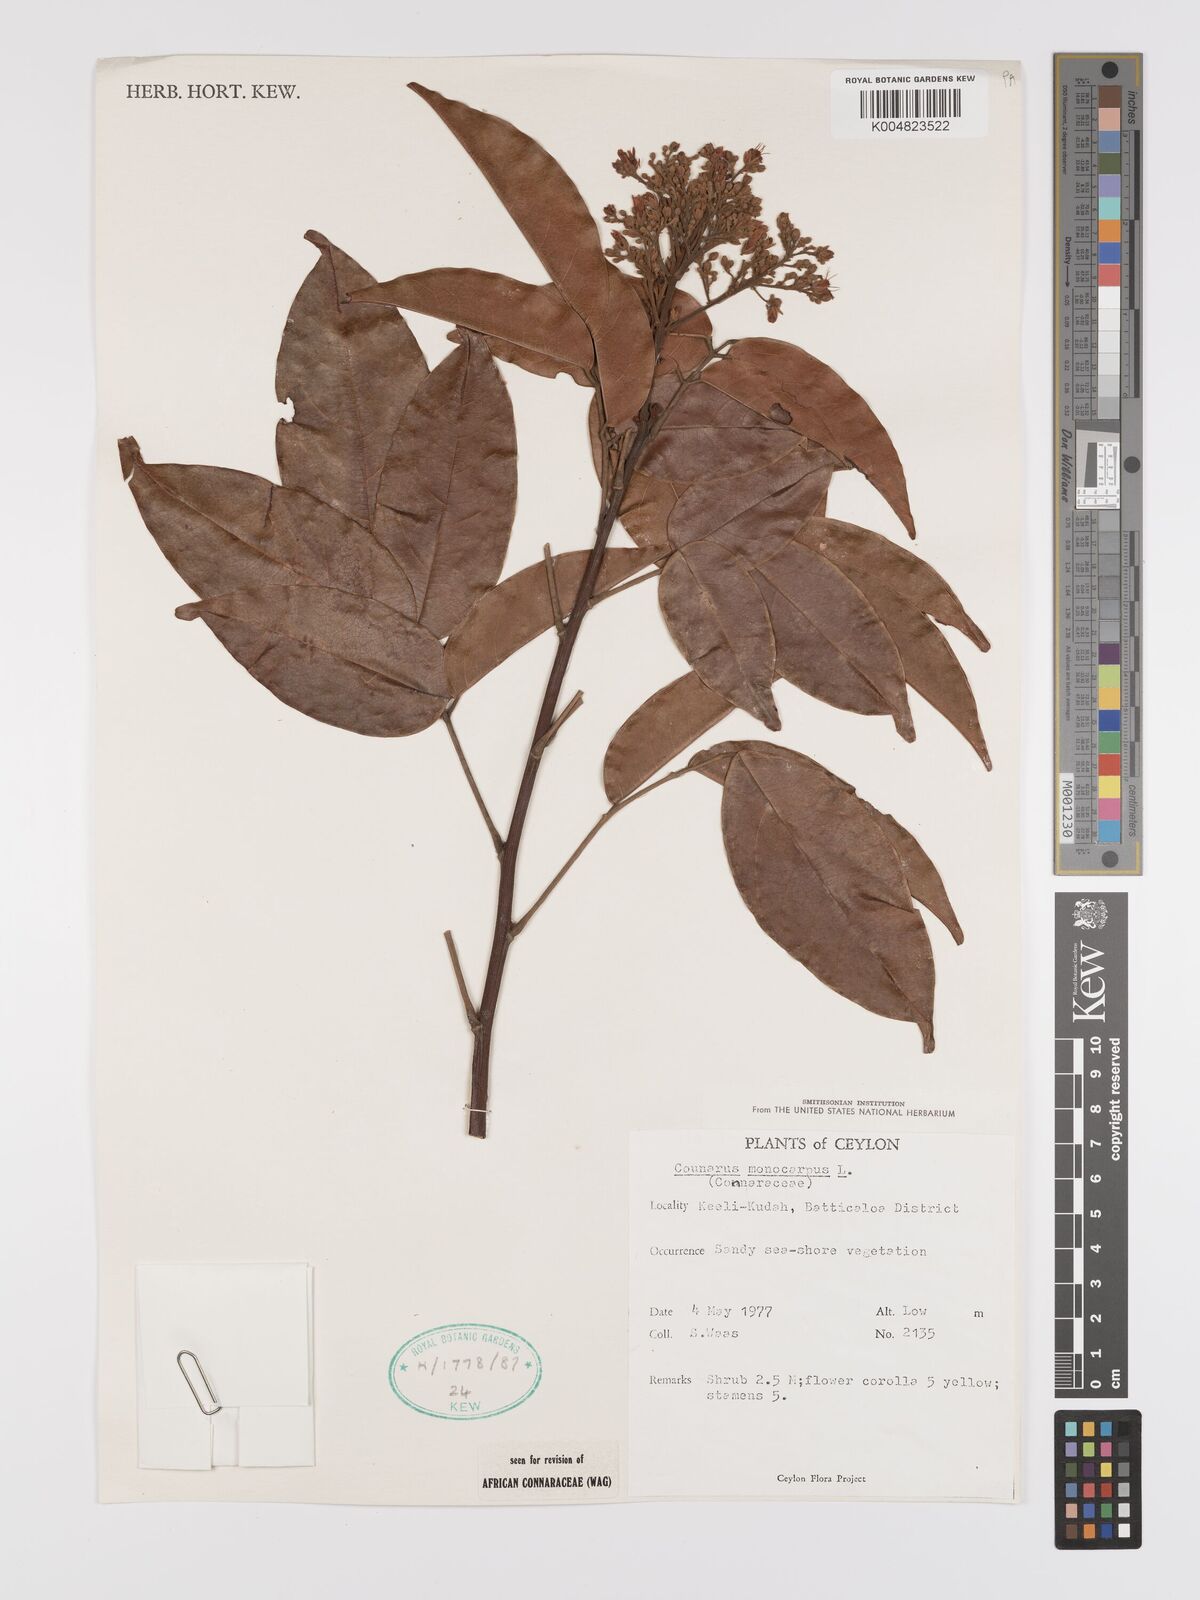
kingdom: Plantae
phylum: Tracheophyta
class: Magnoliopsida
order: Oxalidales
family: Connaraceae
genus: Connarus
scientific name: Connarus semidecandrus
